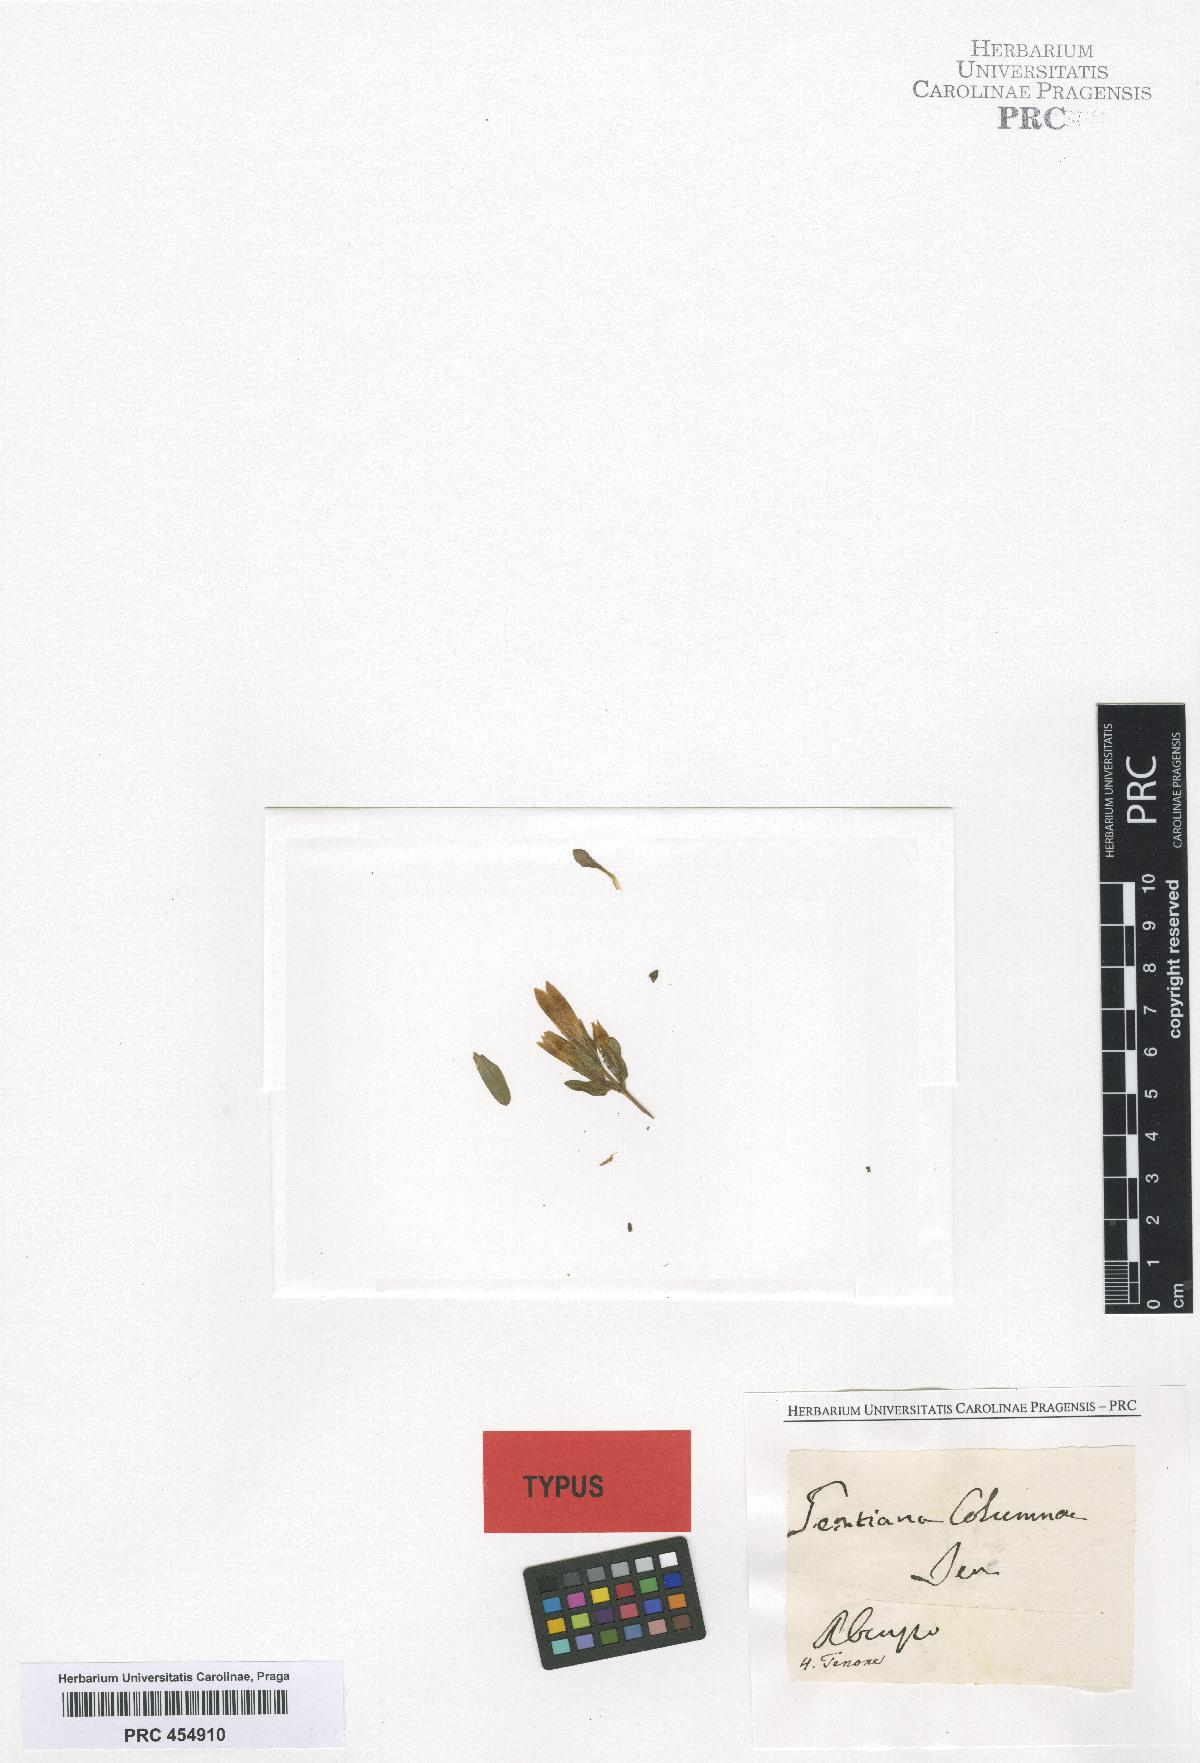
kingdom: Plantae
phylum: Tracheophyta
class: Magnoliopsida
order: Gentianales
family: Gentianaceae
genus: Gentianella
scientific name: Gentianella columnae
